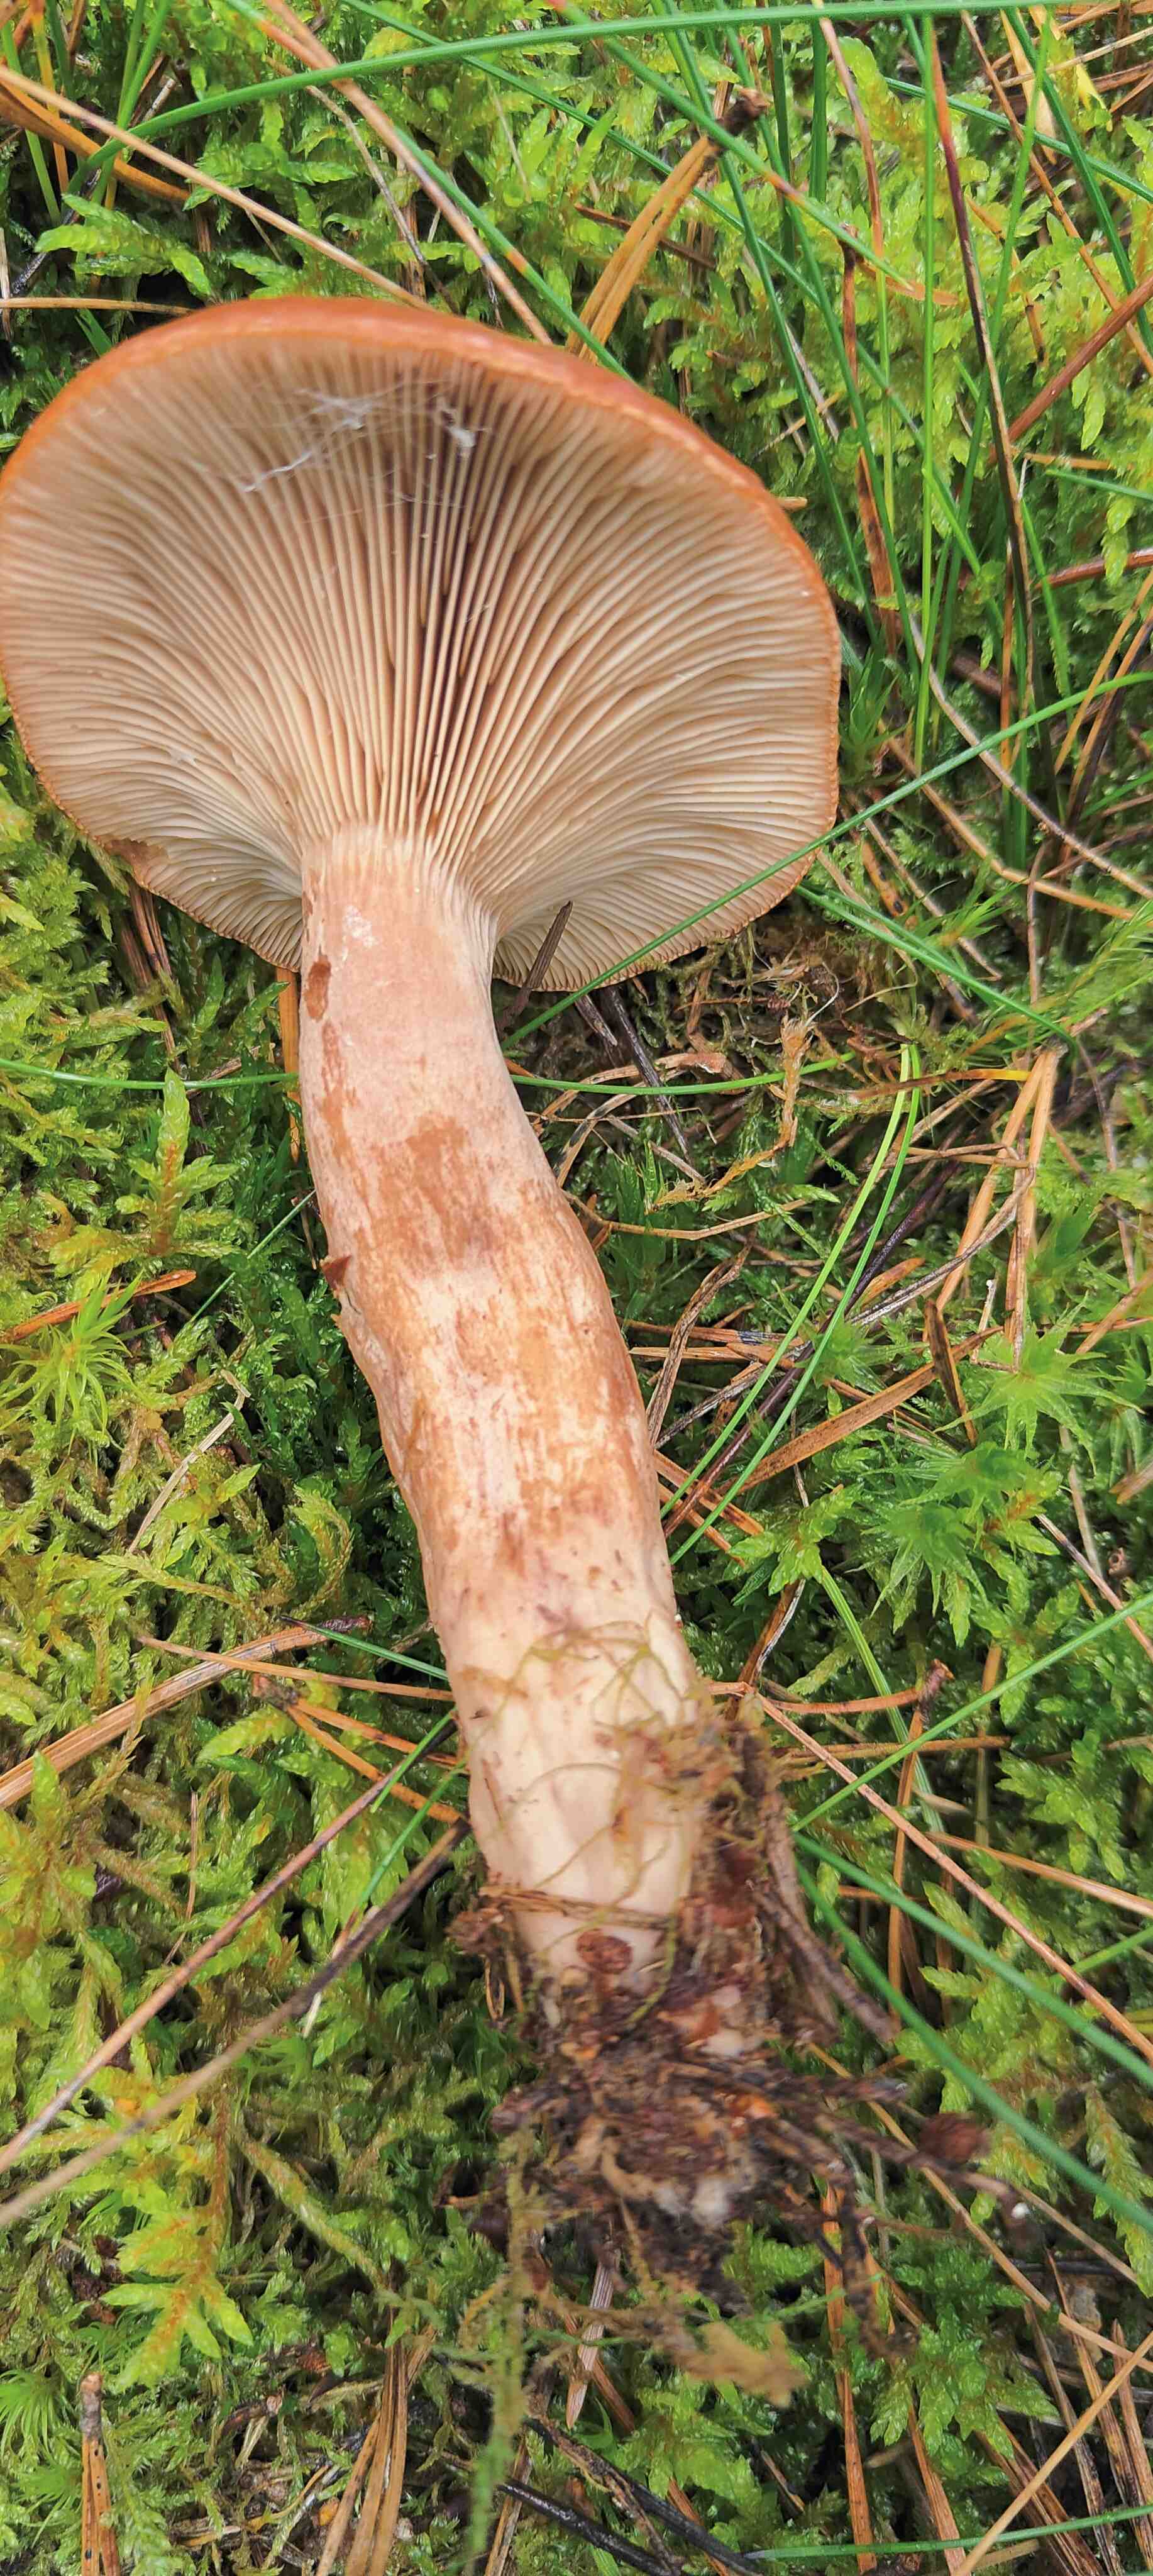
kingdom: Fungi
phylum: Basidiomycota
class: Agaricomycetes
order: Russulales
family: Russulaceae
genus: Lactarius
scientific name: Lactarius rufus
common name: rødbrun mælkehat
